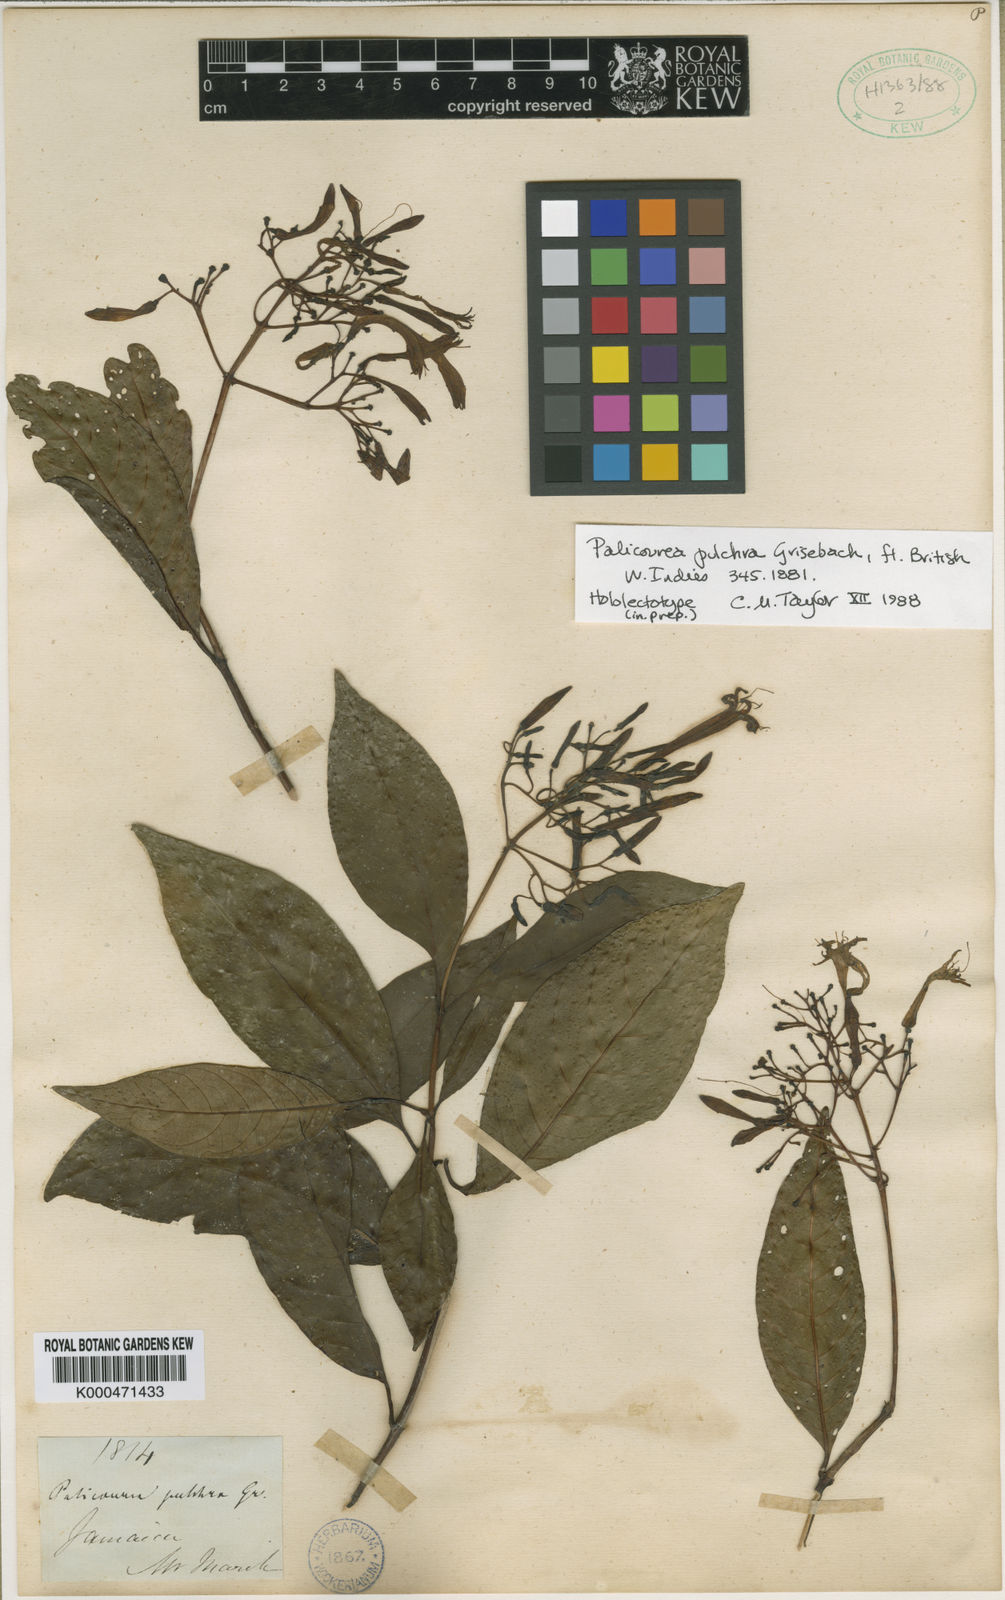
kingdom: Plantae
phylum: Tracheophyta
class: Magnoliopsida
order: Gentianales
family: Rubiaceae
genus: Palicourea
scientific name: Palicourea pulchra
